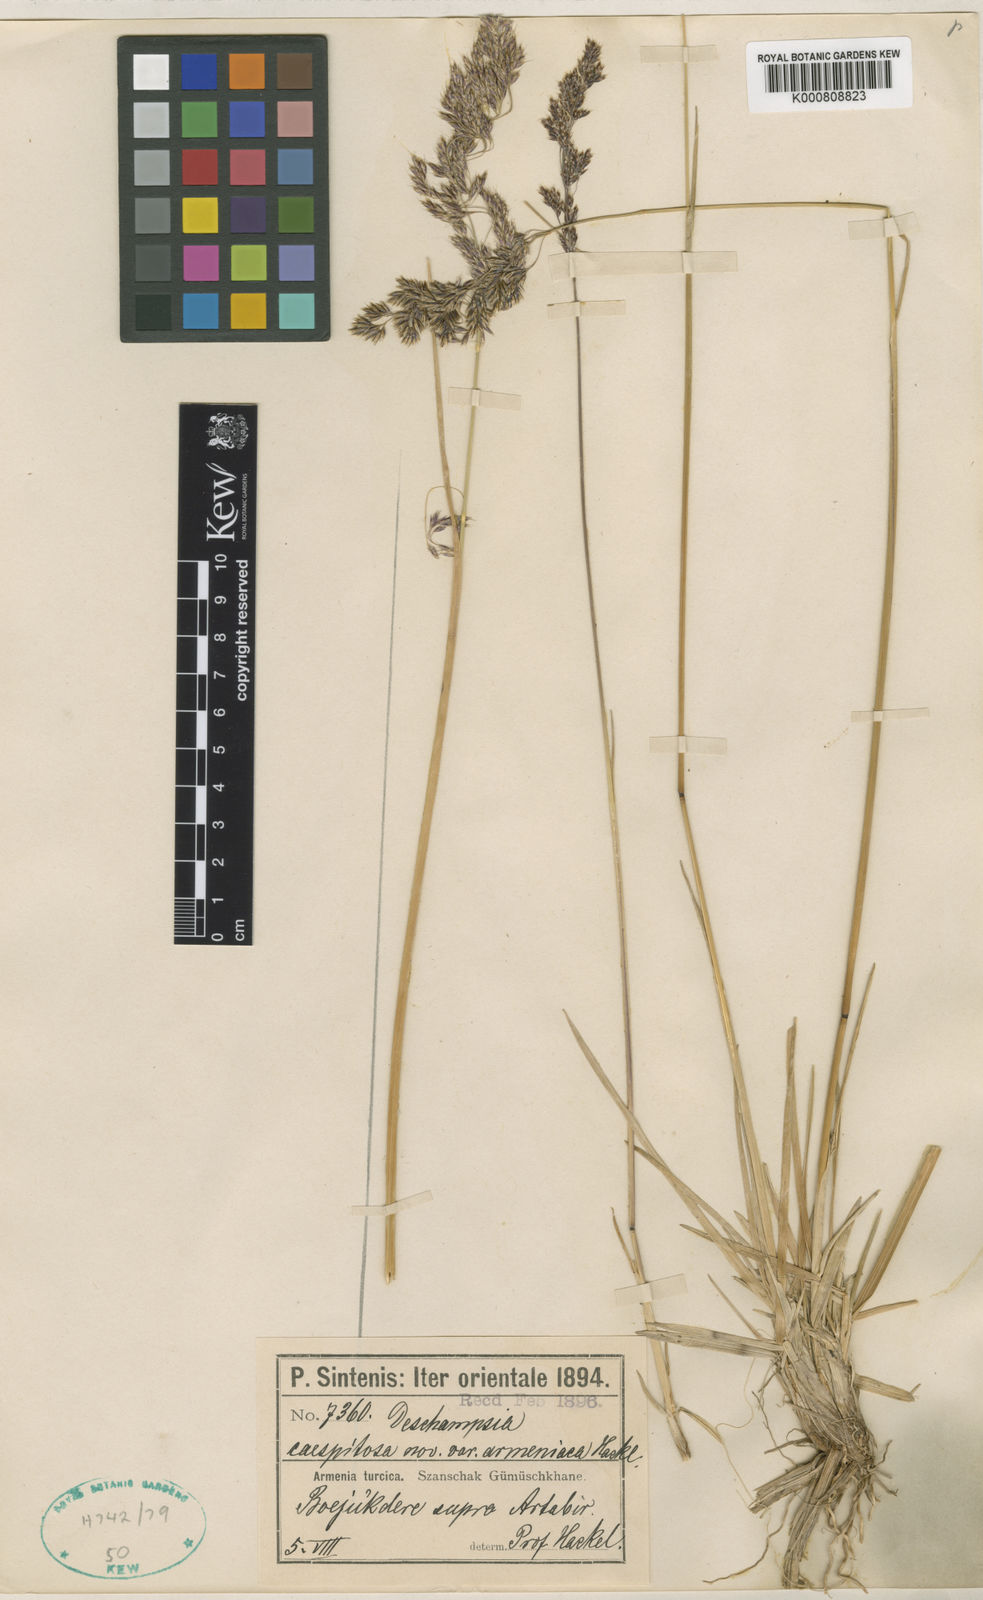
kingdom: Plantae
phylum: Tracheophyta
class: Liliopsida
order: Poales
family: Poaceae
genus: Deschampsia
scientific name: Deschampsia cespitosa
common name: Tufted hair-grass
